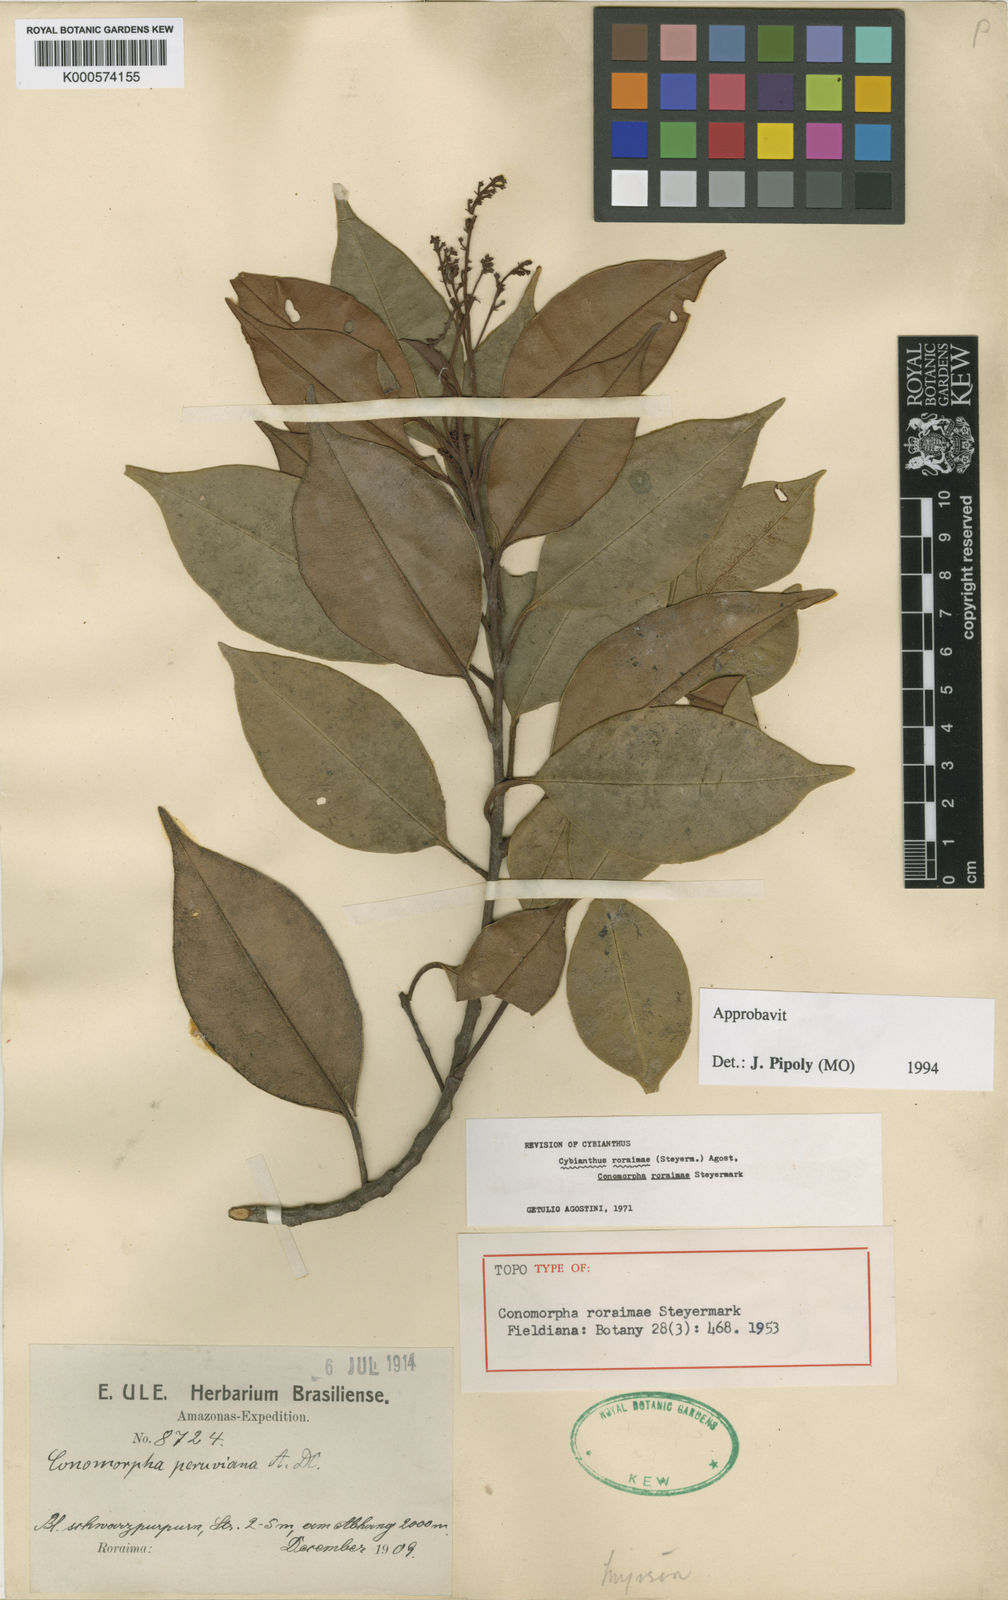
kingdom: Plantae
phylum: Tracheophyta
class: Magnoliopsida
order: Ericales
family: Primulaceae
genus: Cybianthus
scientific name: Cybianthus roraimae
